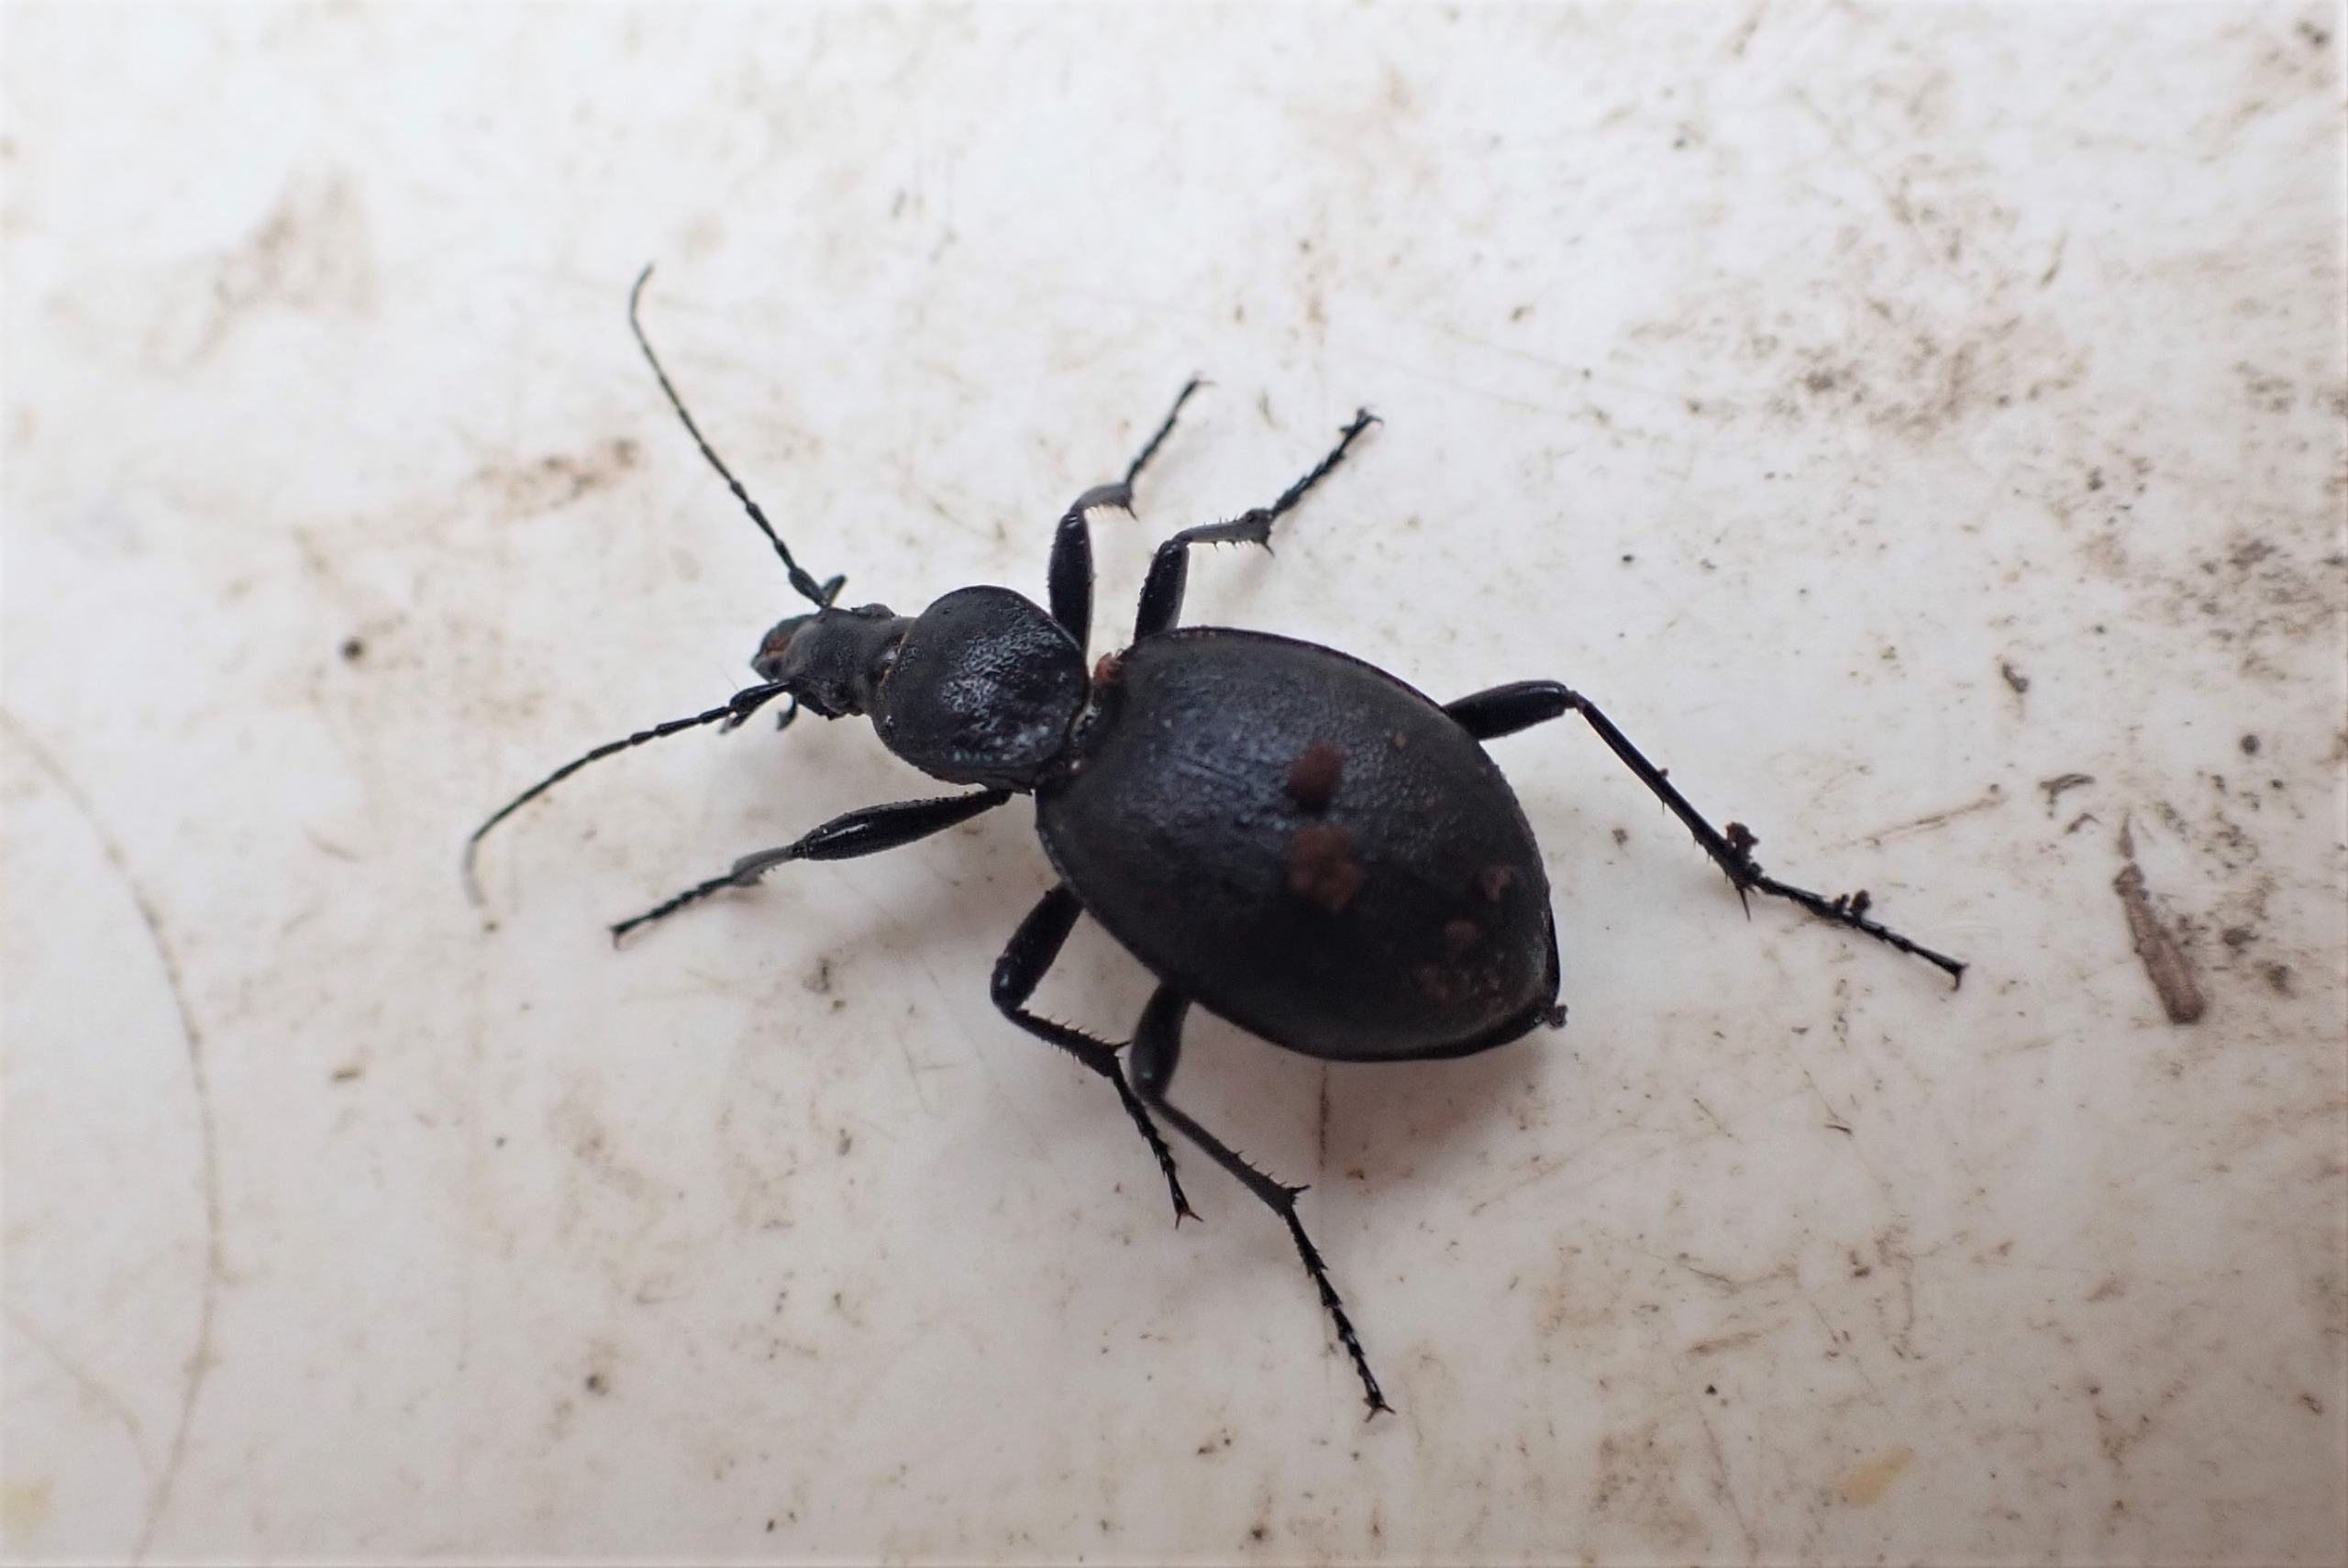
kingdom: Animalia
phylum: Arthropoda
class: Insecta
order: Coleoptera
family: Carabidae
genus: Cychrus
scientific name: Cychrus caraboides
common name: Sneglerøver
